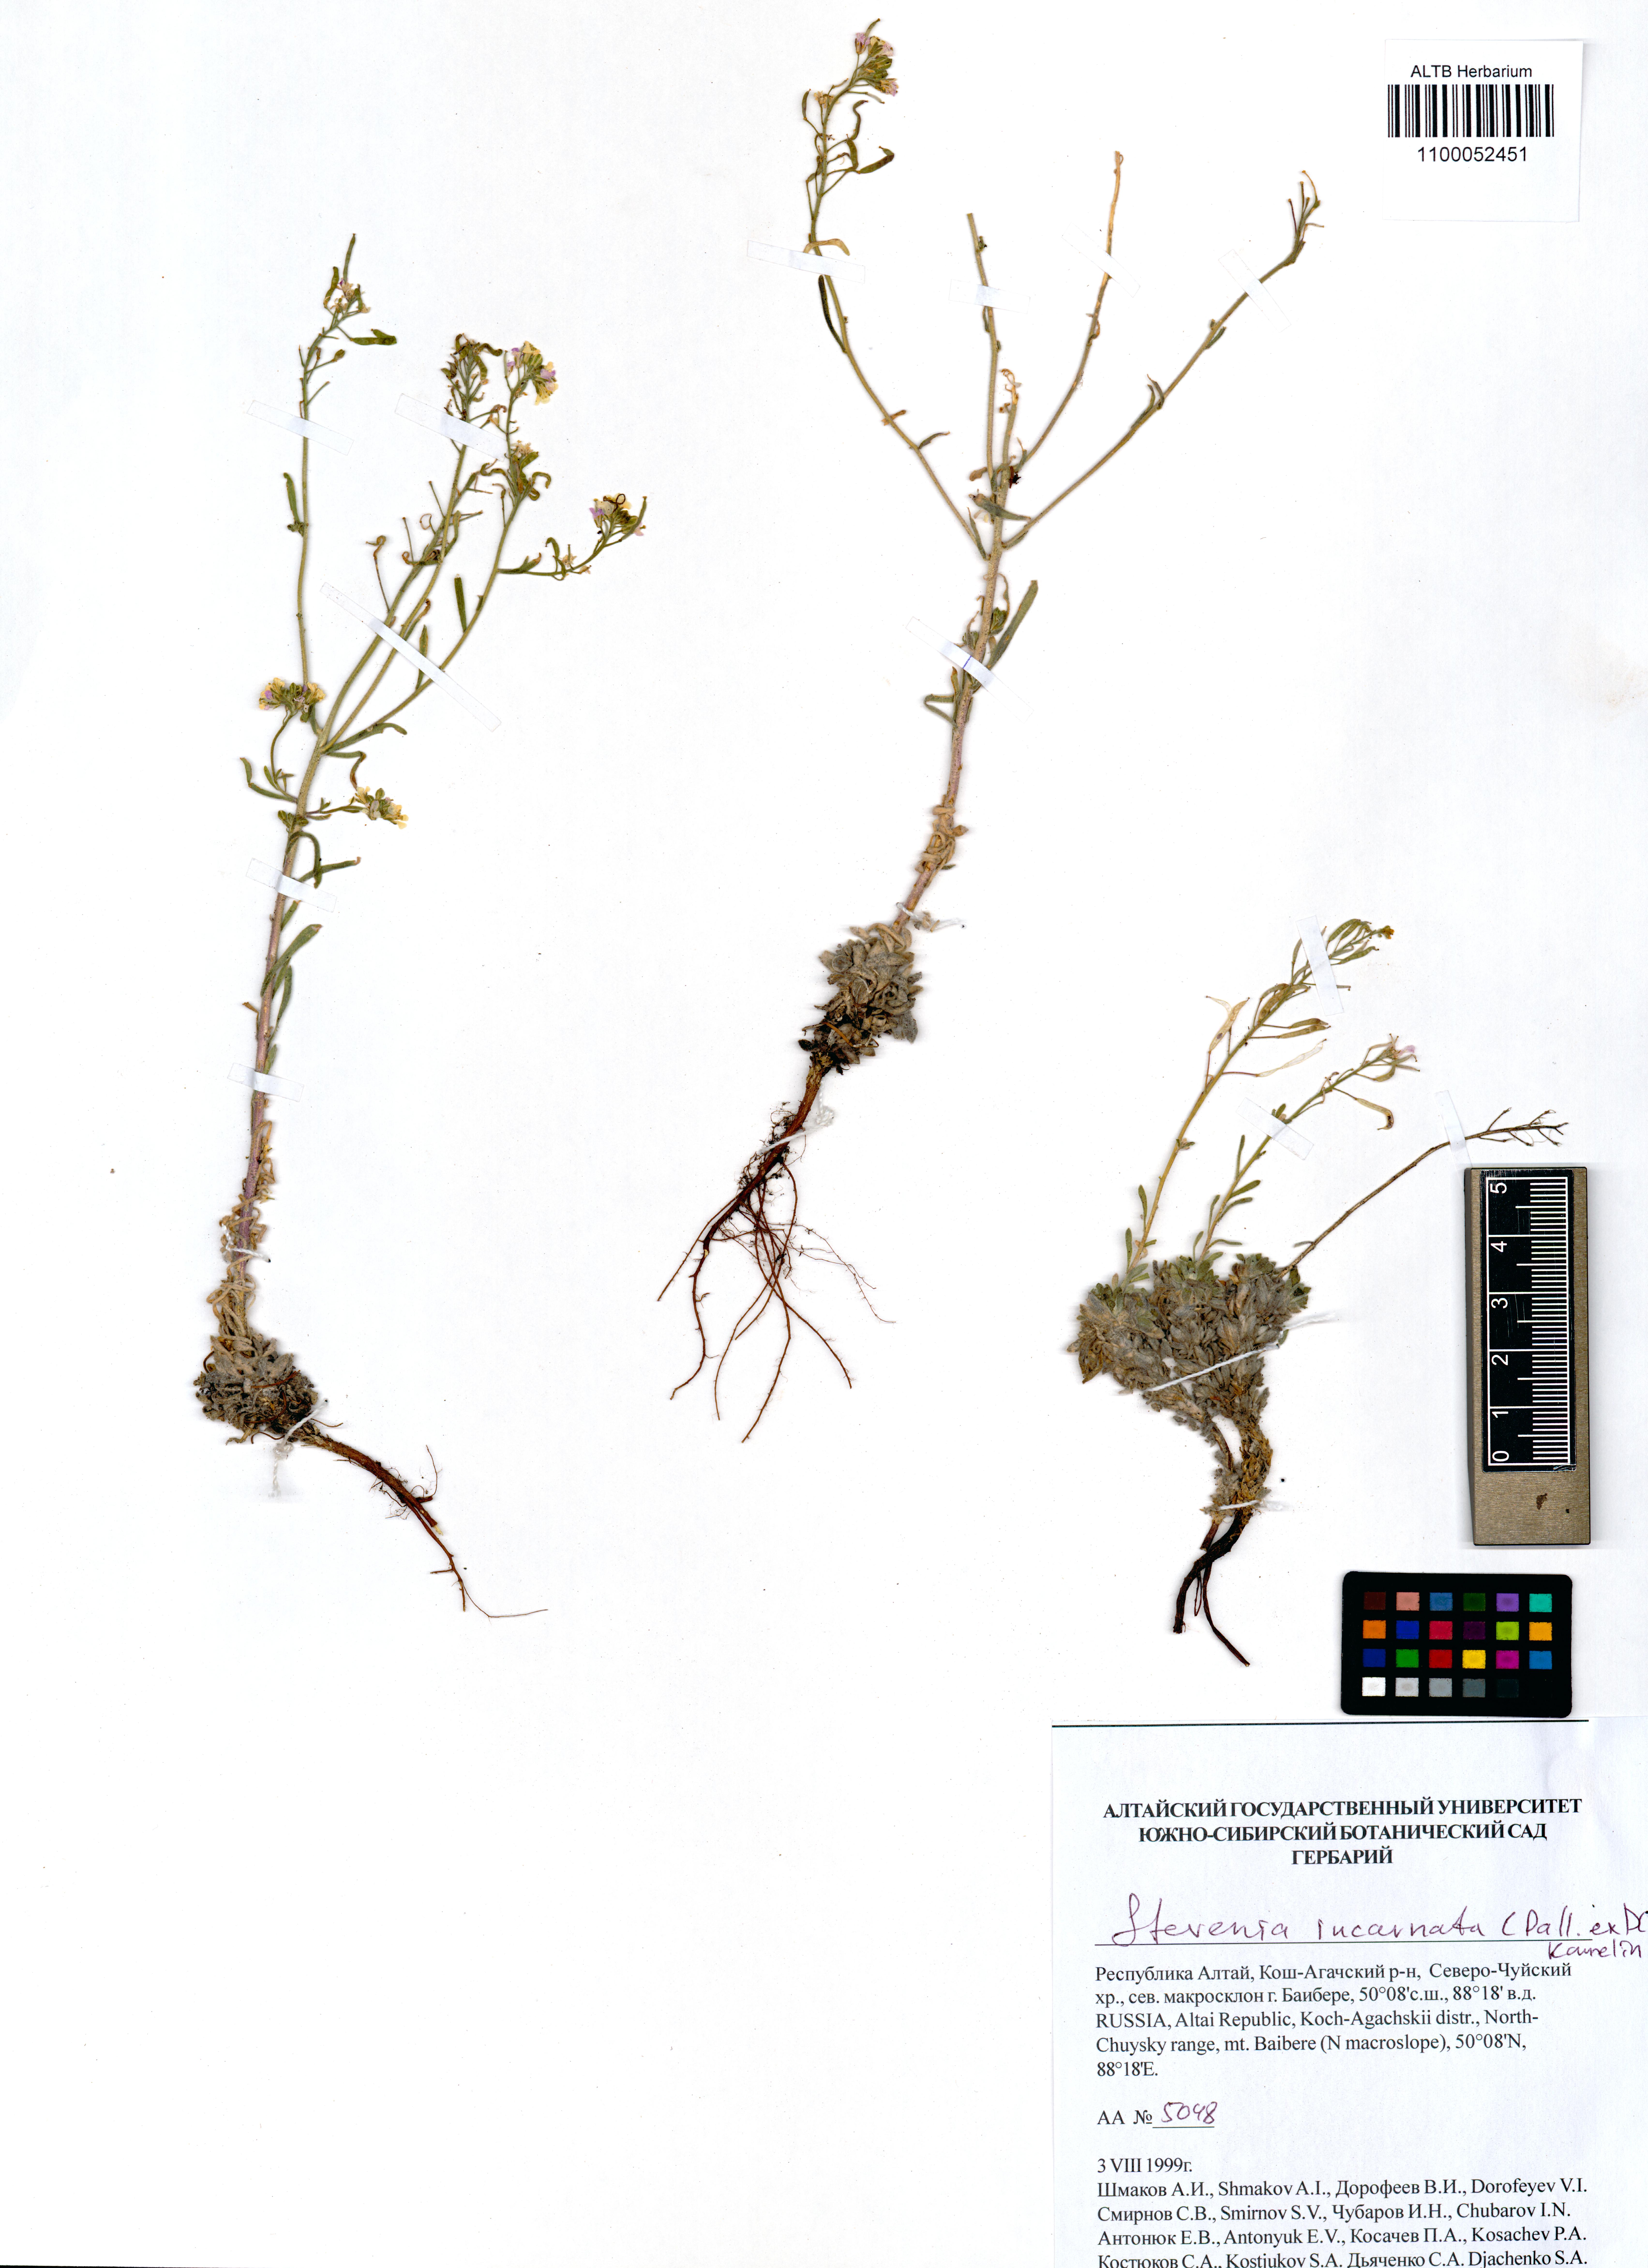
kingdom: Plantae
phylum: Tracheophyta
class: Magnoliopsida
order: Brassicales
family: Brassicaceae
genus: Stevenia
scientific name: Stevenia incarnata
